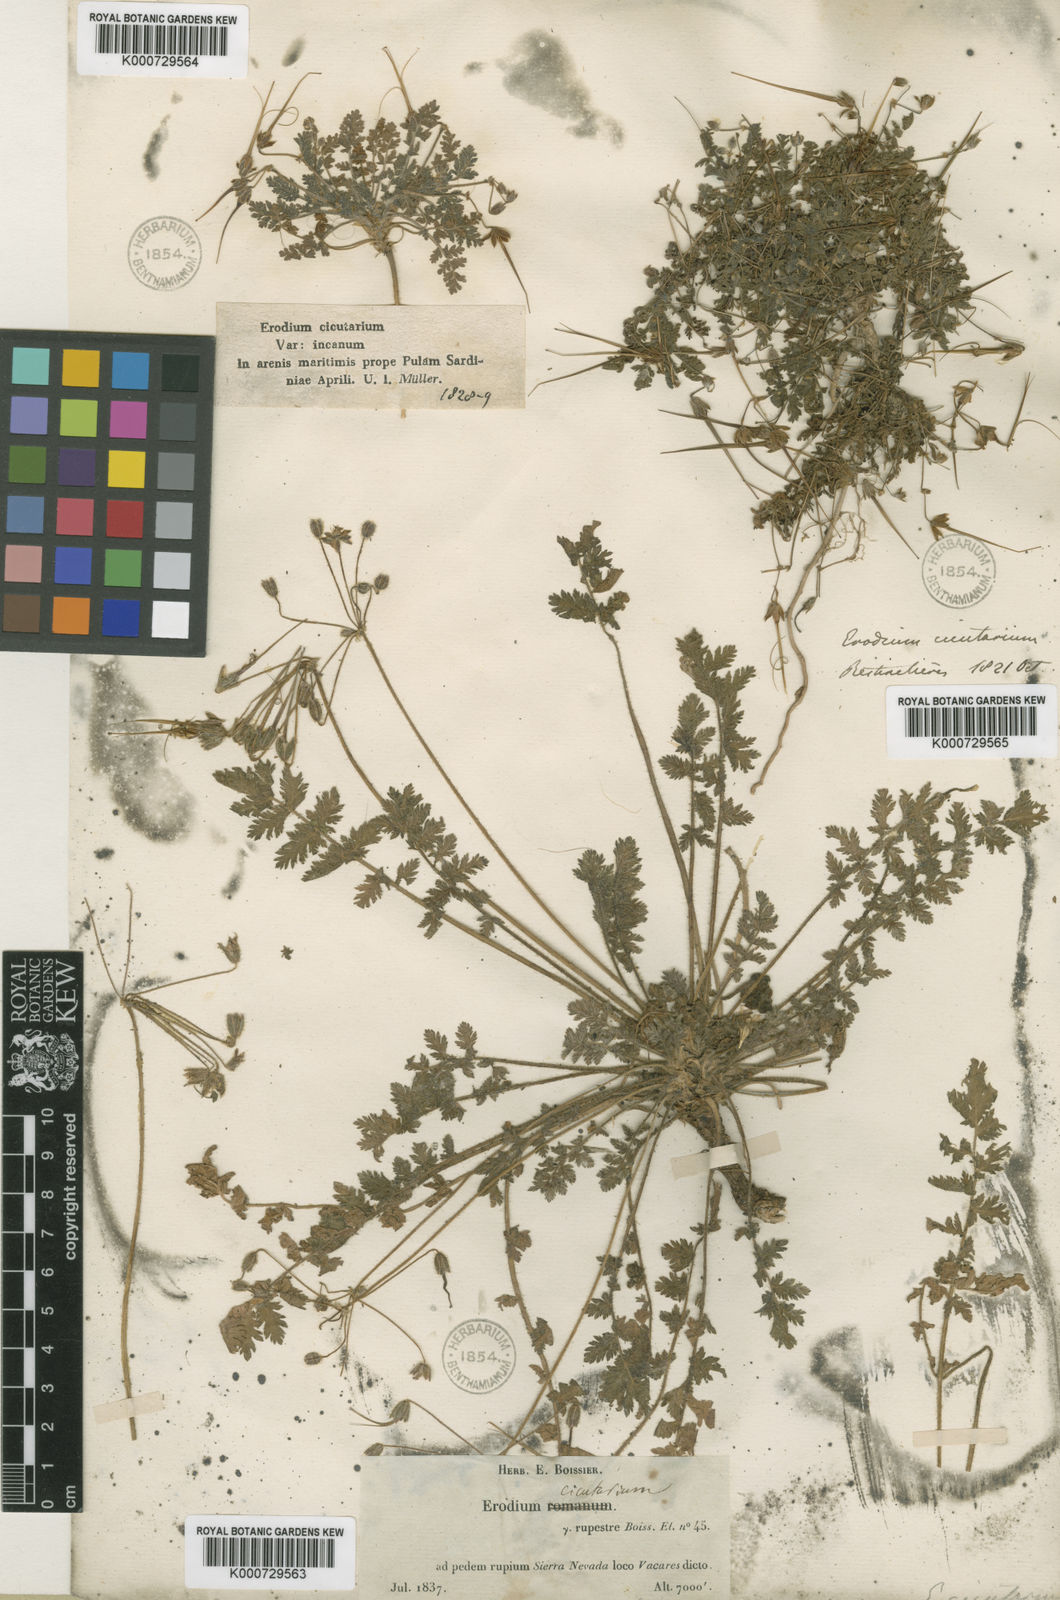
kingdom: Plantae
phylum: Tracheophyta
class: Magnoliopsida
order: Geraniales
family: Geraniaceae
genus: Erodium
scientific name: Erodium rupicola
